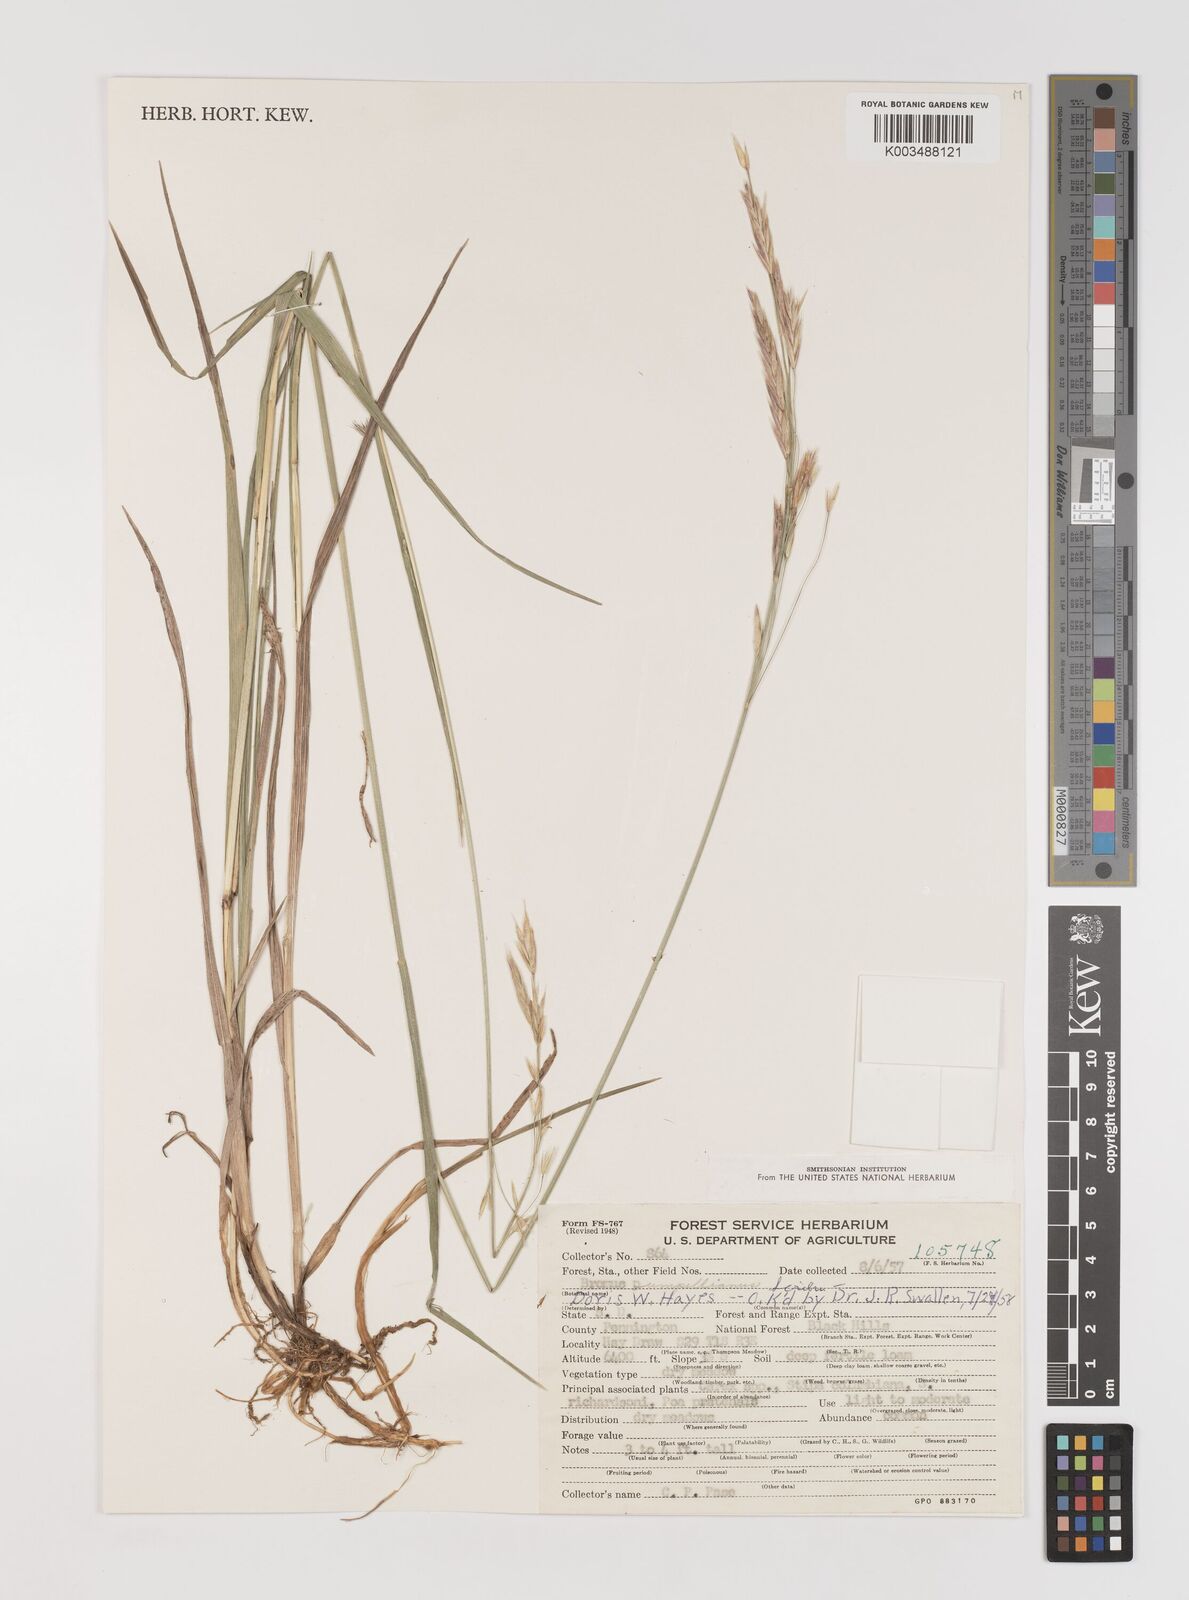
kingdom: Plantae
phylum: Tracheophyta
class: Liliopsida
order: Poales
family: Poaceae
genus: Bromus
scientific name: Bromus pumpellianus
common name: Pumpelly's brome
